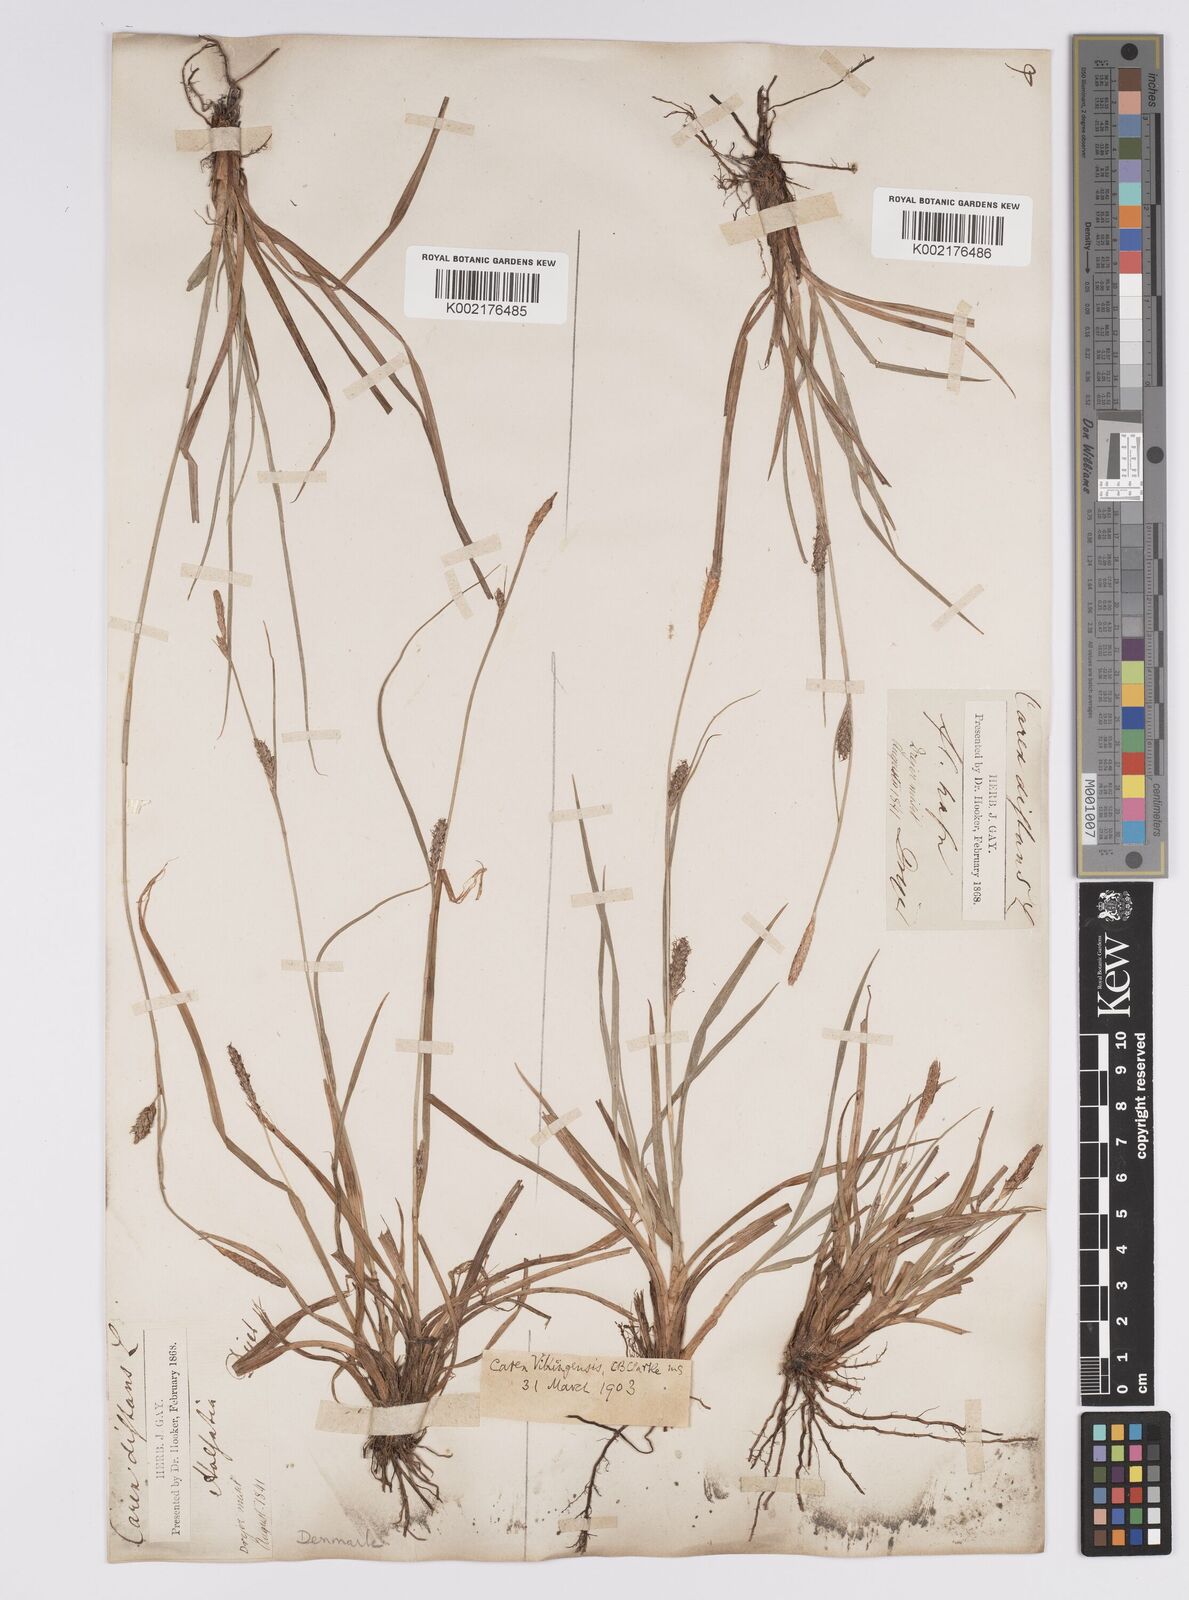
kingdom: Plantae
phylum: Tracheophyta
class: Liliopsida
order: Poales
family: Cyperaceae
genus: Carex
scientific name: Carex distans
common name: Distant sedge
